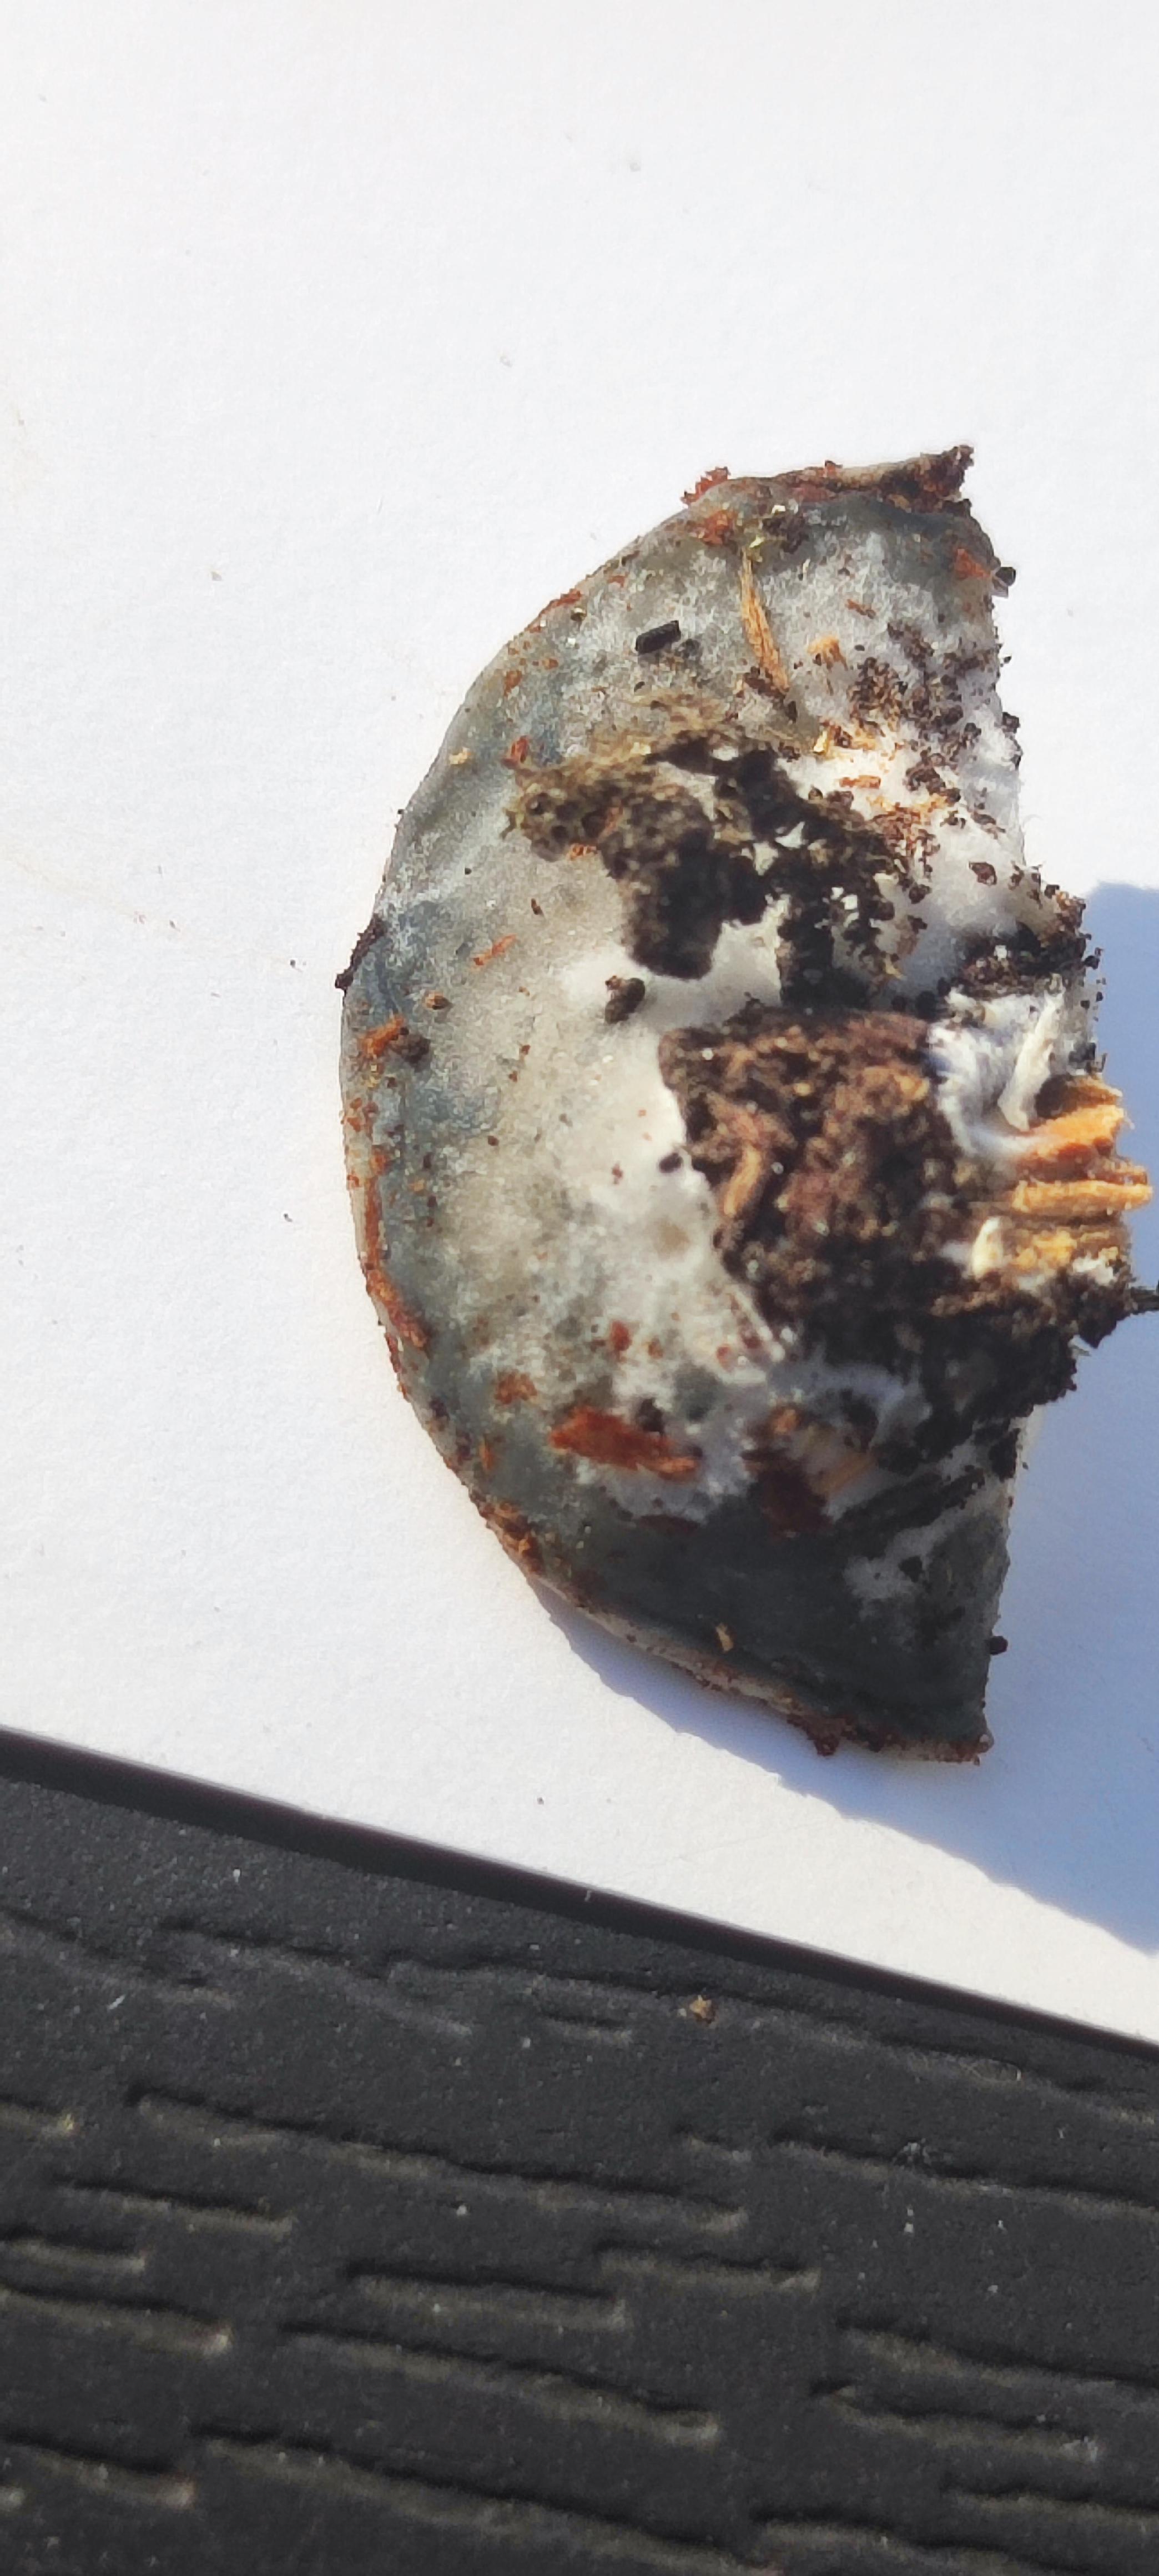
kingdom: Fungi
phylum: Basidiomycota
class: Agaricomycetes
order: Polyporales
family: Polyporaceae
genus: Cyanosporus
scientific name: Cyanosporus caesius
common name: blålig kødporesvamp
